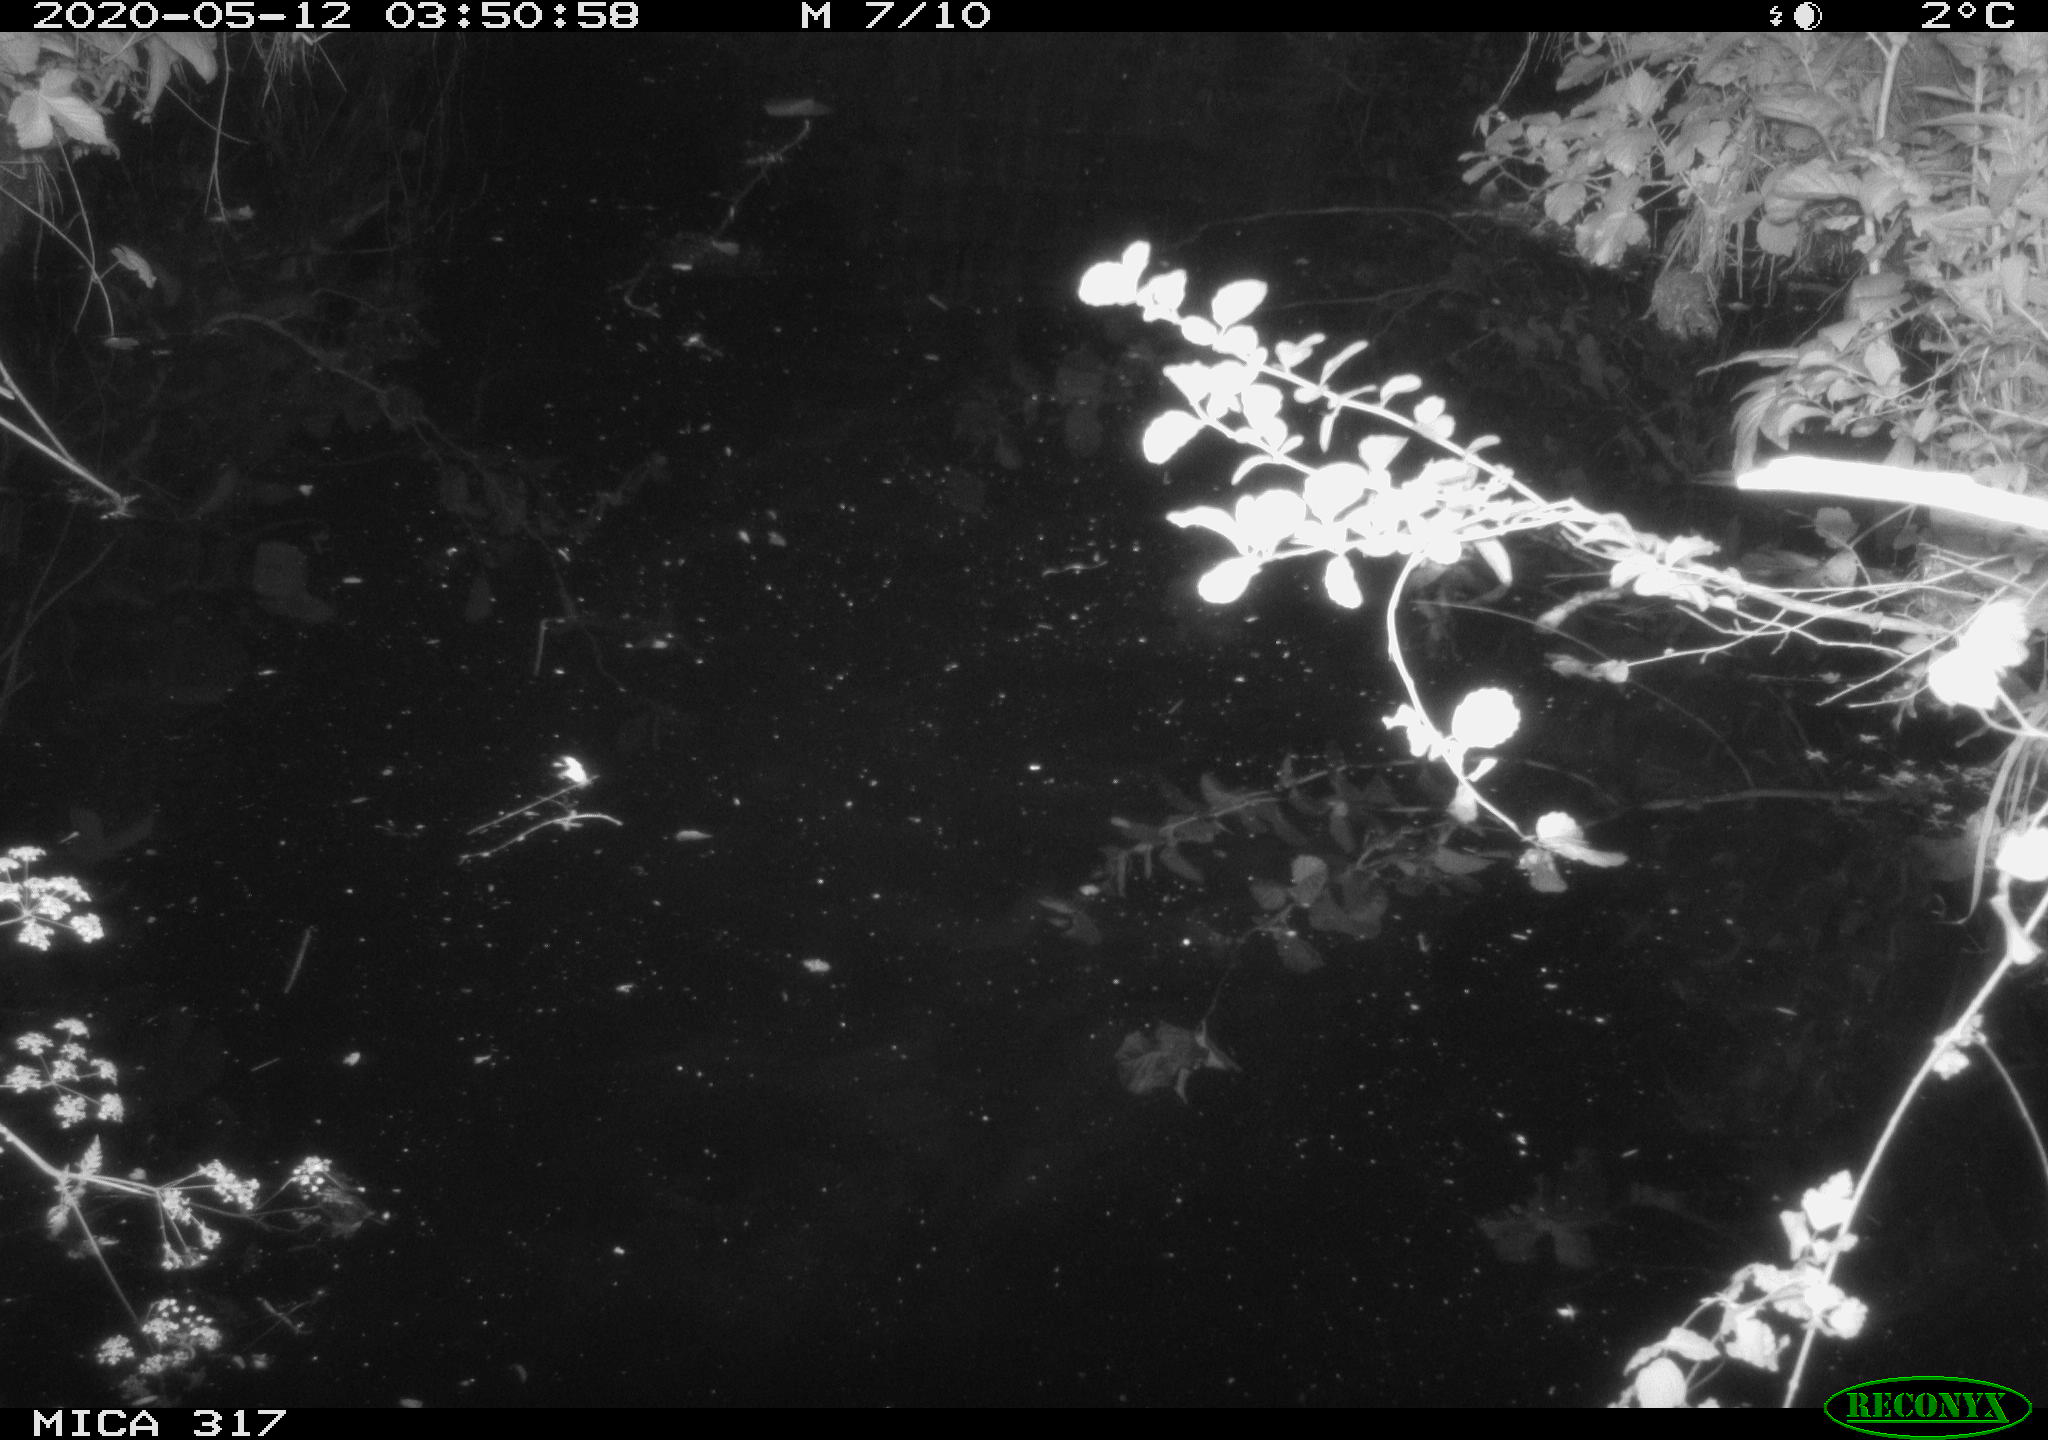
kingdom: Animalia
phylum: Chordata
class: Aves
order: Anseriformes
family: Anatidae
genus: Anas
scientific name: Anas platyrhynchos
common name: Mallard
